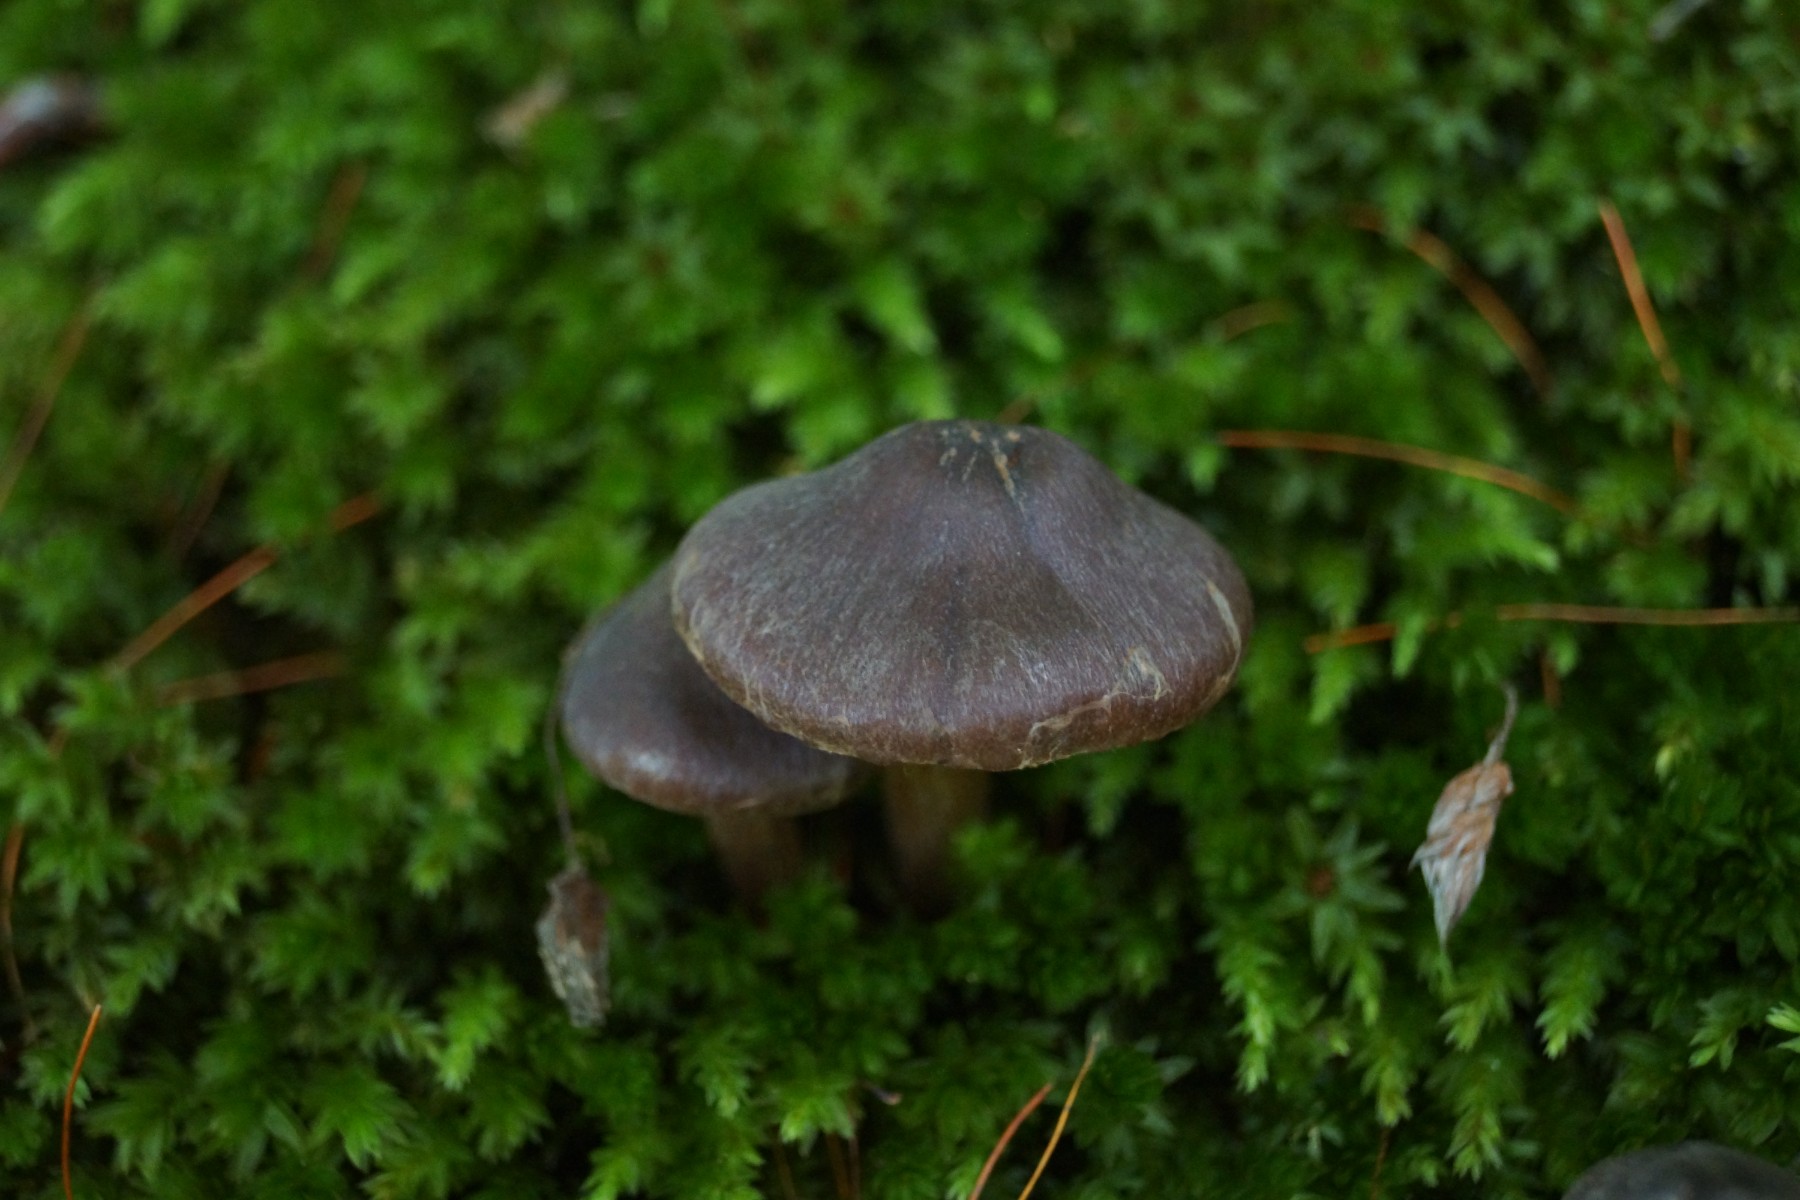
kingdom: Fungi
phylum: Basidiomycota
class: Agaricomycetes
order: Agaricales
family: Cortinariaceae
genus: Cortinarius
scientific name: Cortinarius inconspicuus
